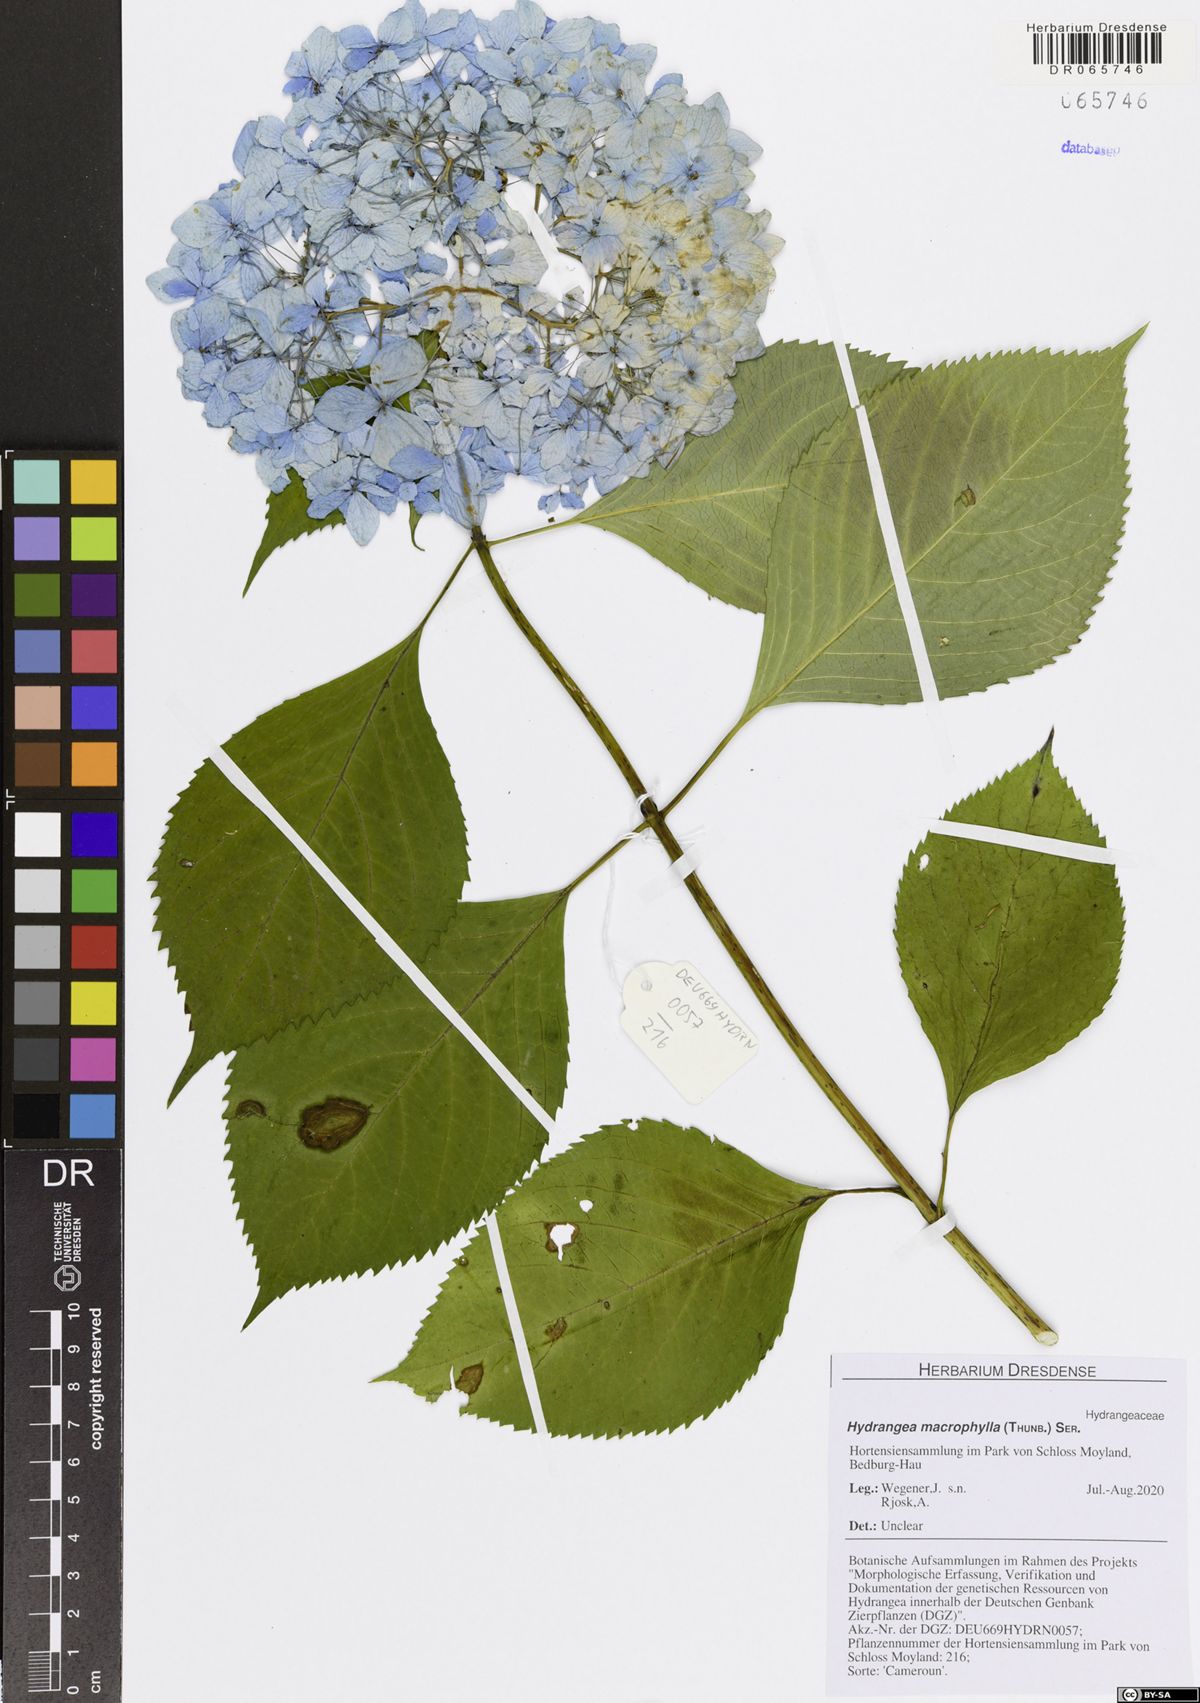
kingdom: Plantae
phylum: Tracheophyta
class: Magnoliopsida
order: Cornales
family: Hydrangeaceae
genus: Hydrangea
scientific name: Hydrangea macrophylla
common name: Hydrangea
